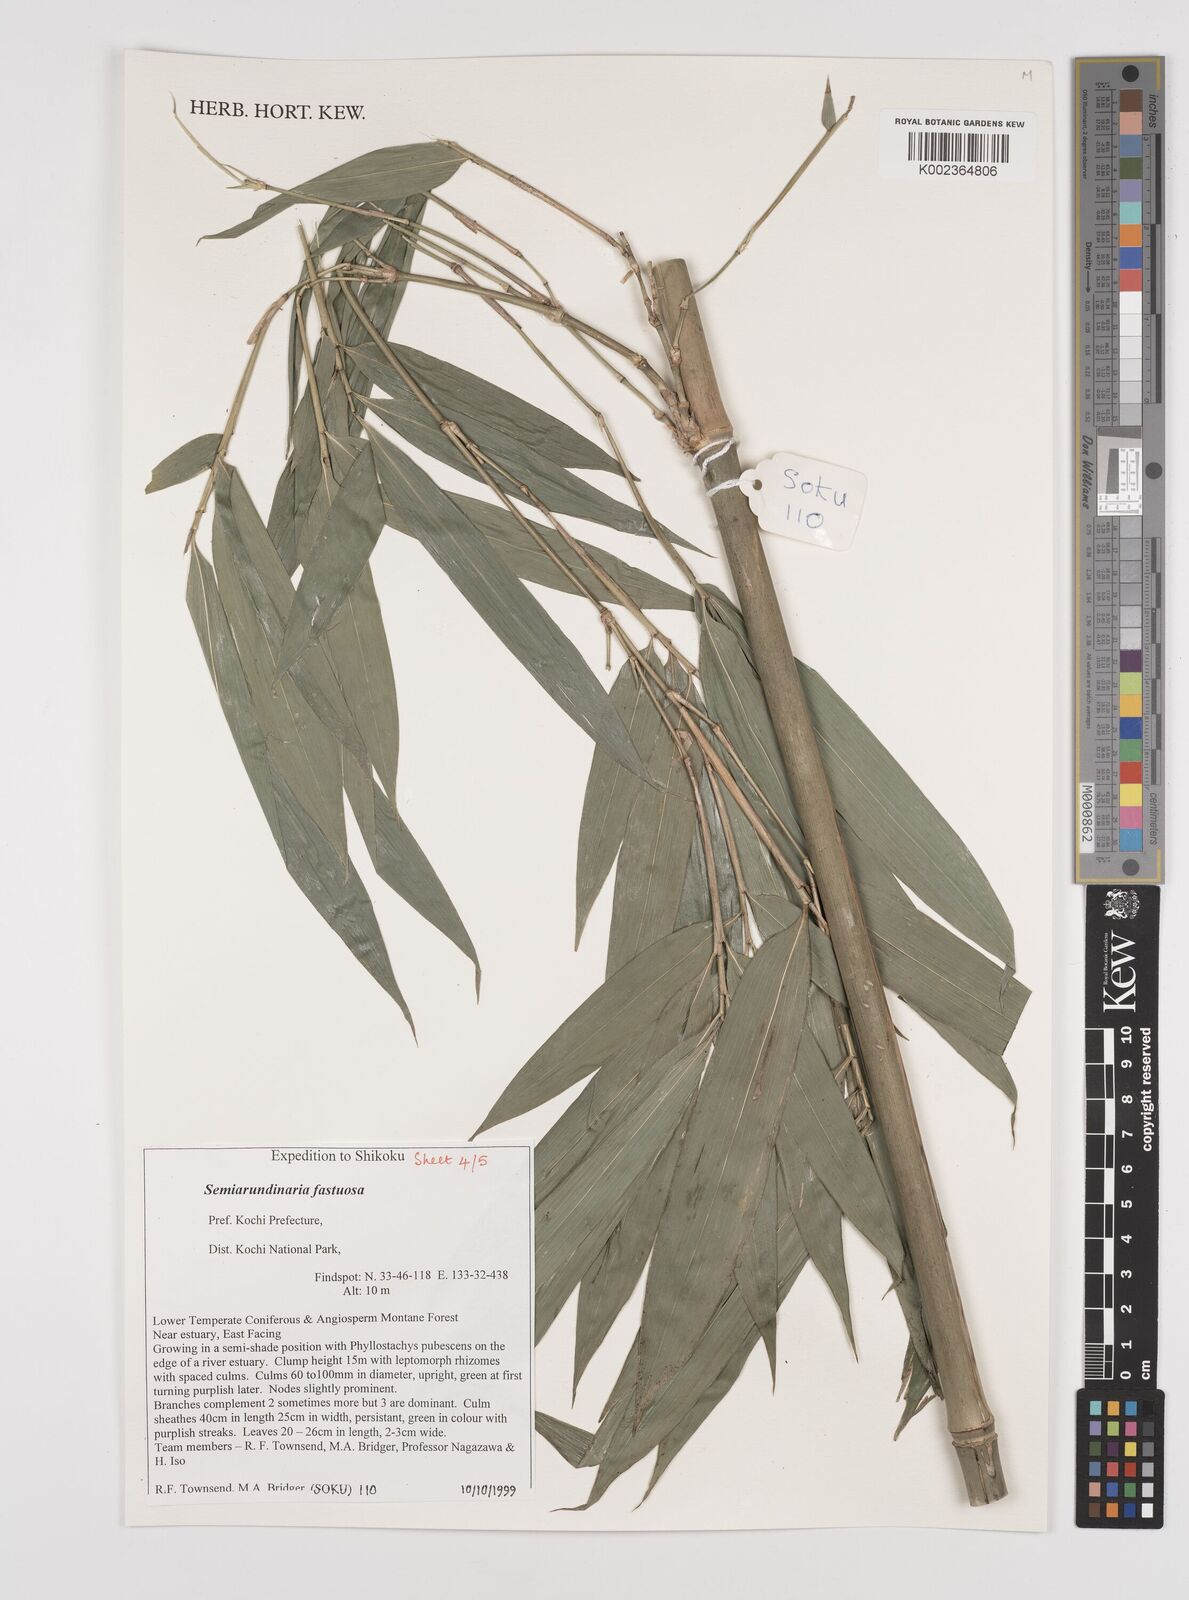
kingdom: Plantae
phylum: Tracheophyta
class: Liliopsida
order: Poales
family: Poaceae
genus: Semiarundinaria
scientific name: Semiarundinaria fastuosa
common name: Narihira bamboo
